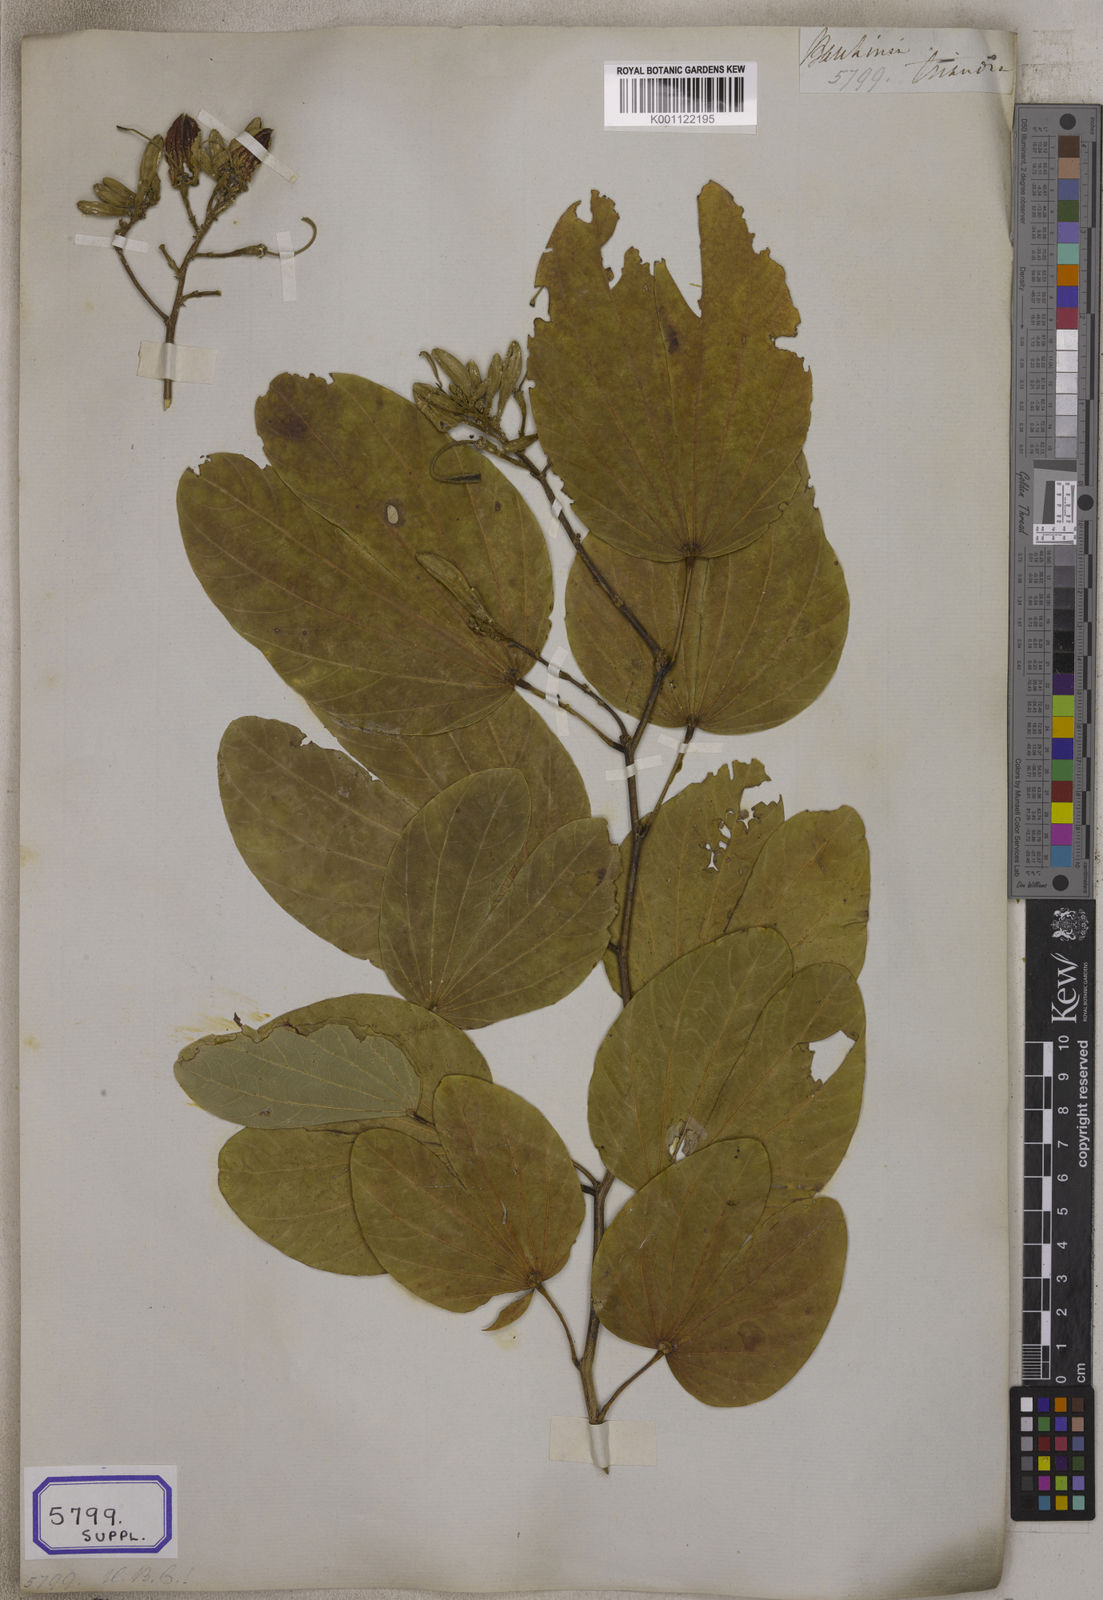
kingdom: Plantae
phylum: Tracheophyta
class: Magnoliopsida
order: Fabales
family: Fabaceae
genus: Bauhinia
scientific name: Bauhinia purpurea
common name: Butterfly-tree
